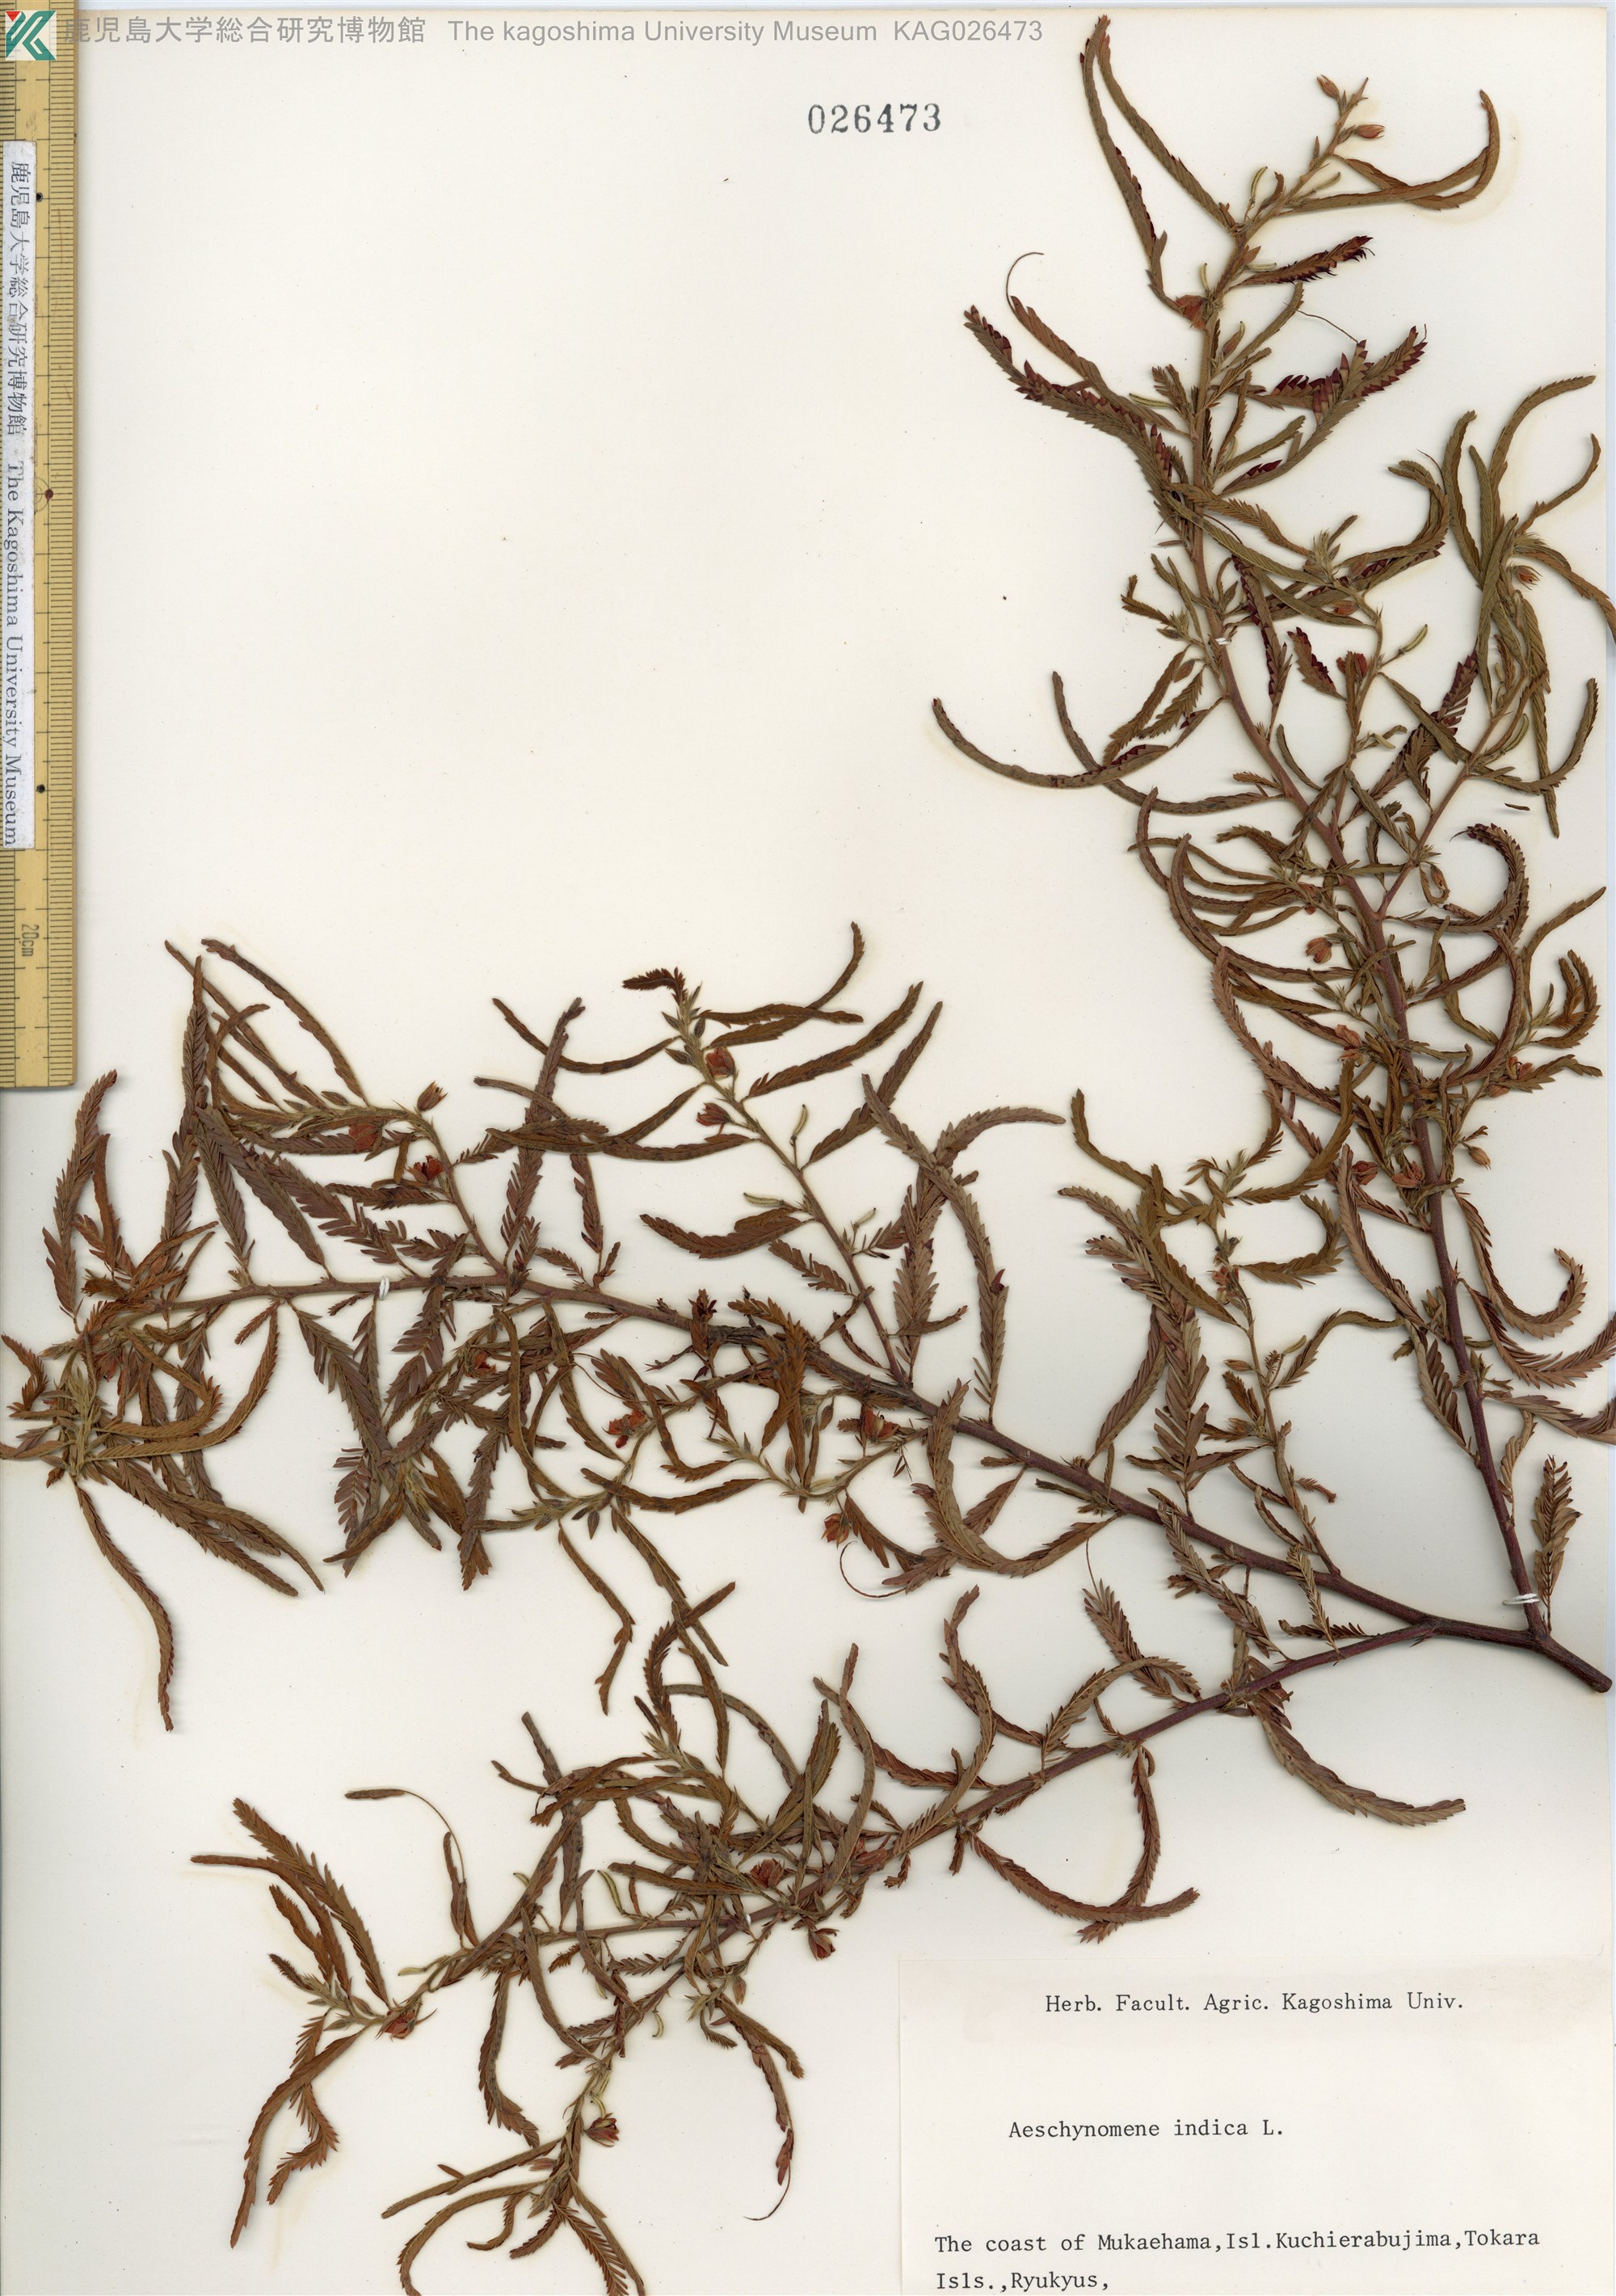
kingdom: Plantae
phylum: Tracheophyta
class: Magnoliopsida
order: Fabales
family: Fabaceae
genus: Chamaecrista
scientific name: Chamaecrista nomame
